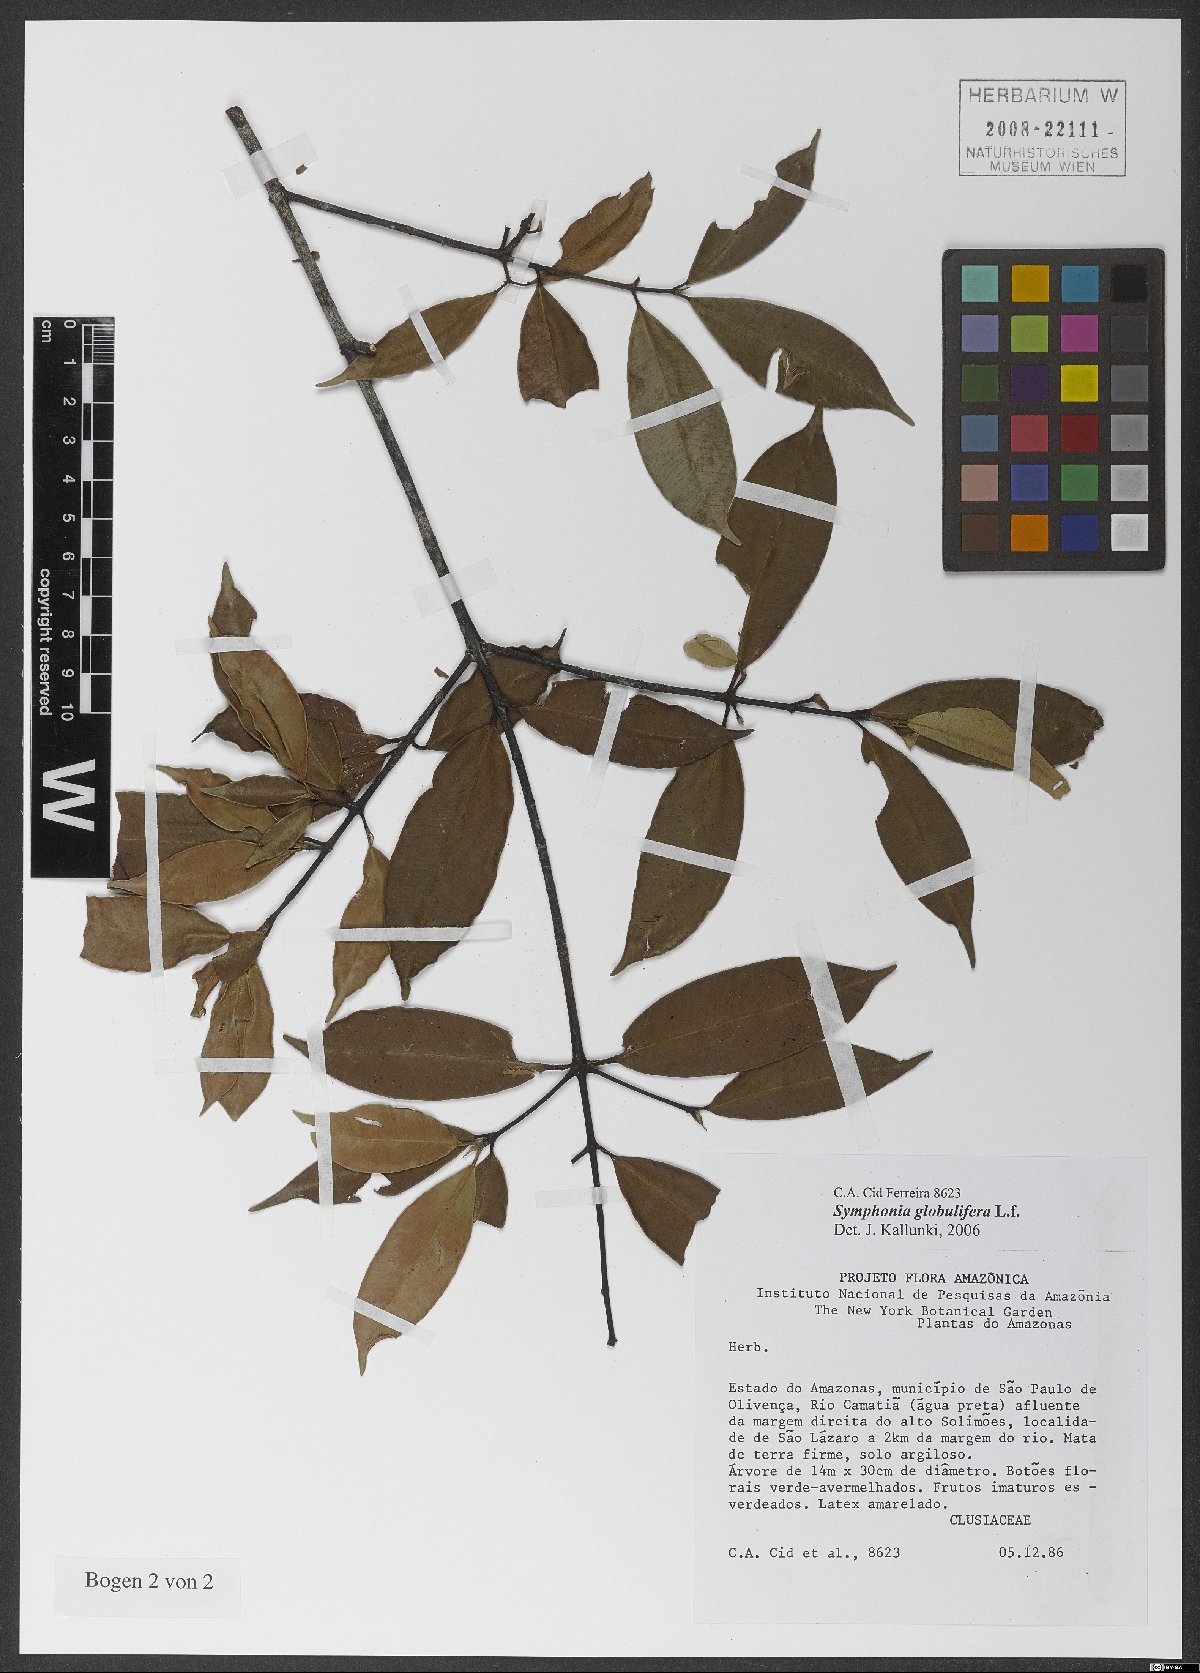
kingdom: Plantae
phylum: Tracheophyta
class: Magnoliopsida
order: Malpighiales
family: Clusiaceae
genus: Symphonia
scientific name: Symphonia globulifera
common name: Boarwood
